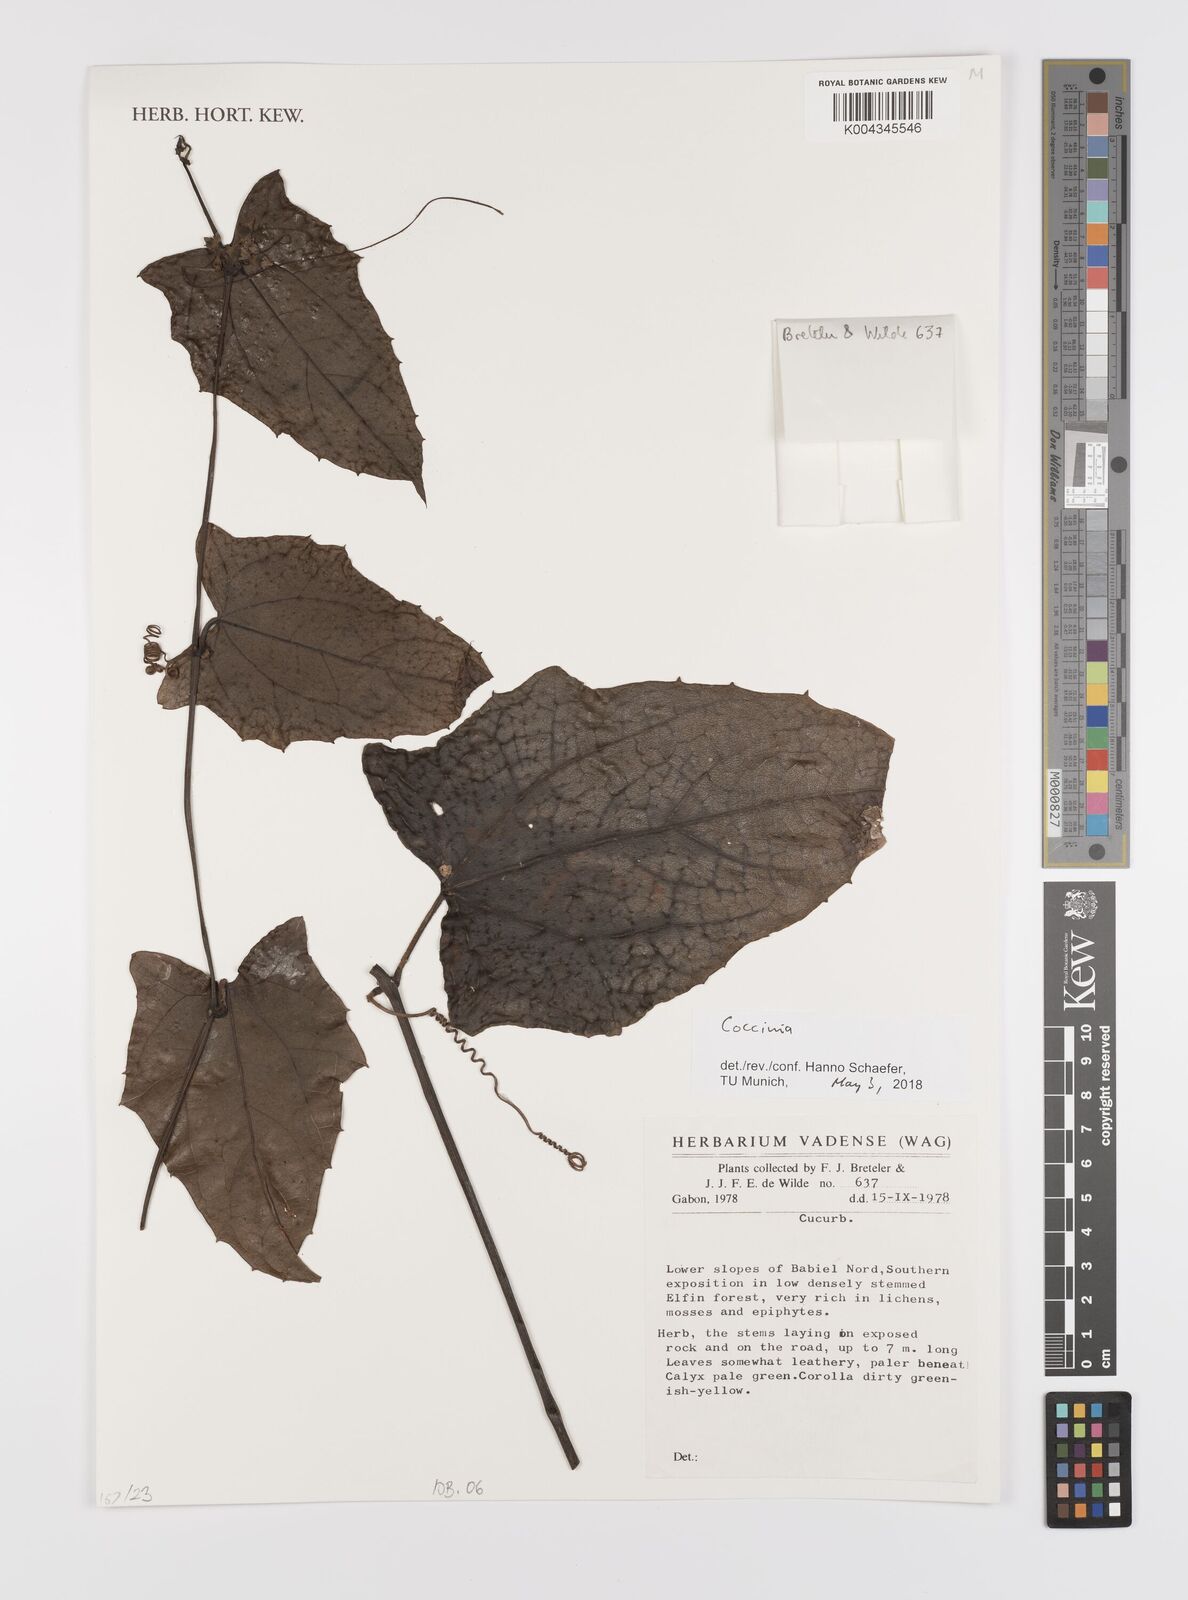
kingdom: Plantae
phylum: Tracheophyta
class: Magnoliopsida
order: Cucurbitales
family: Cucurbitaceae
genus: Coccinia
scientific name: Coccinia
